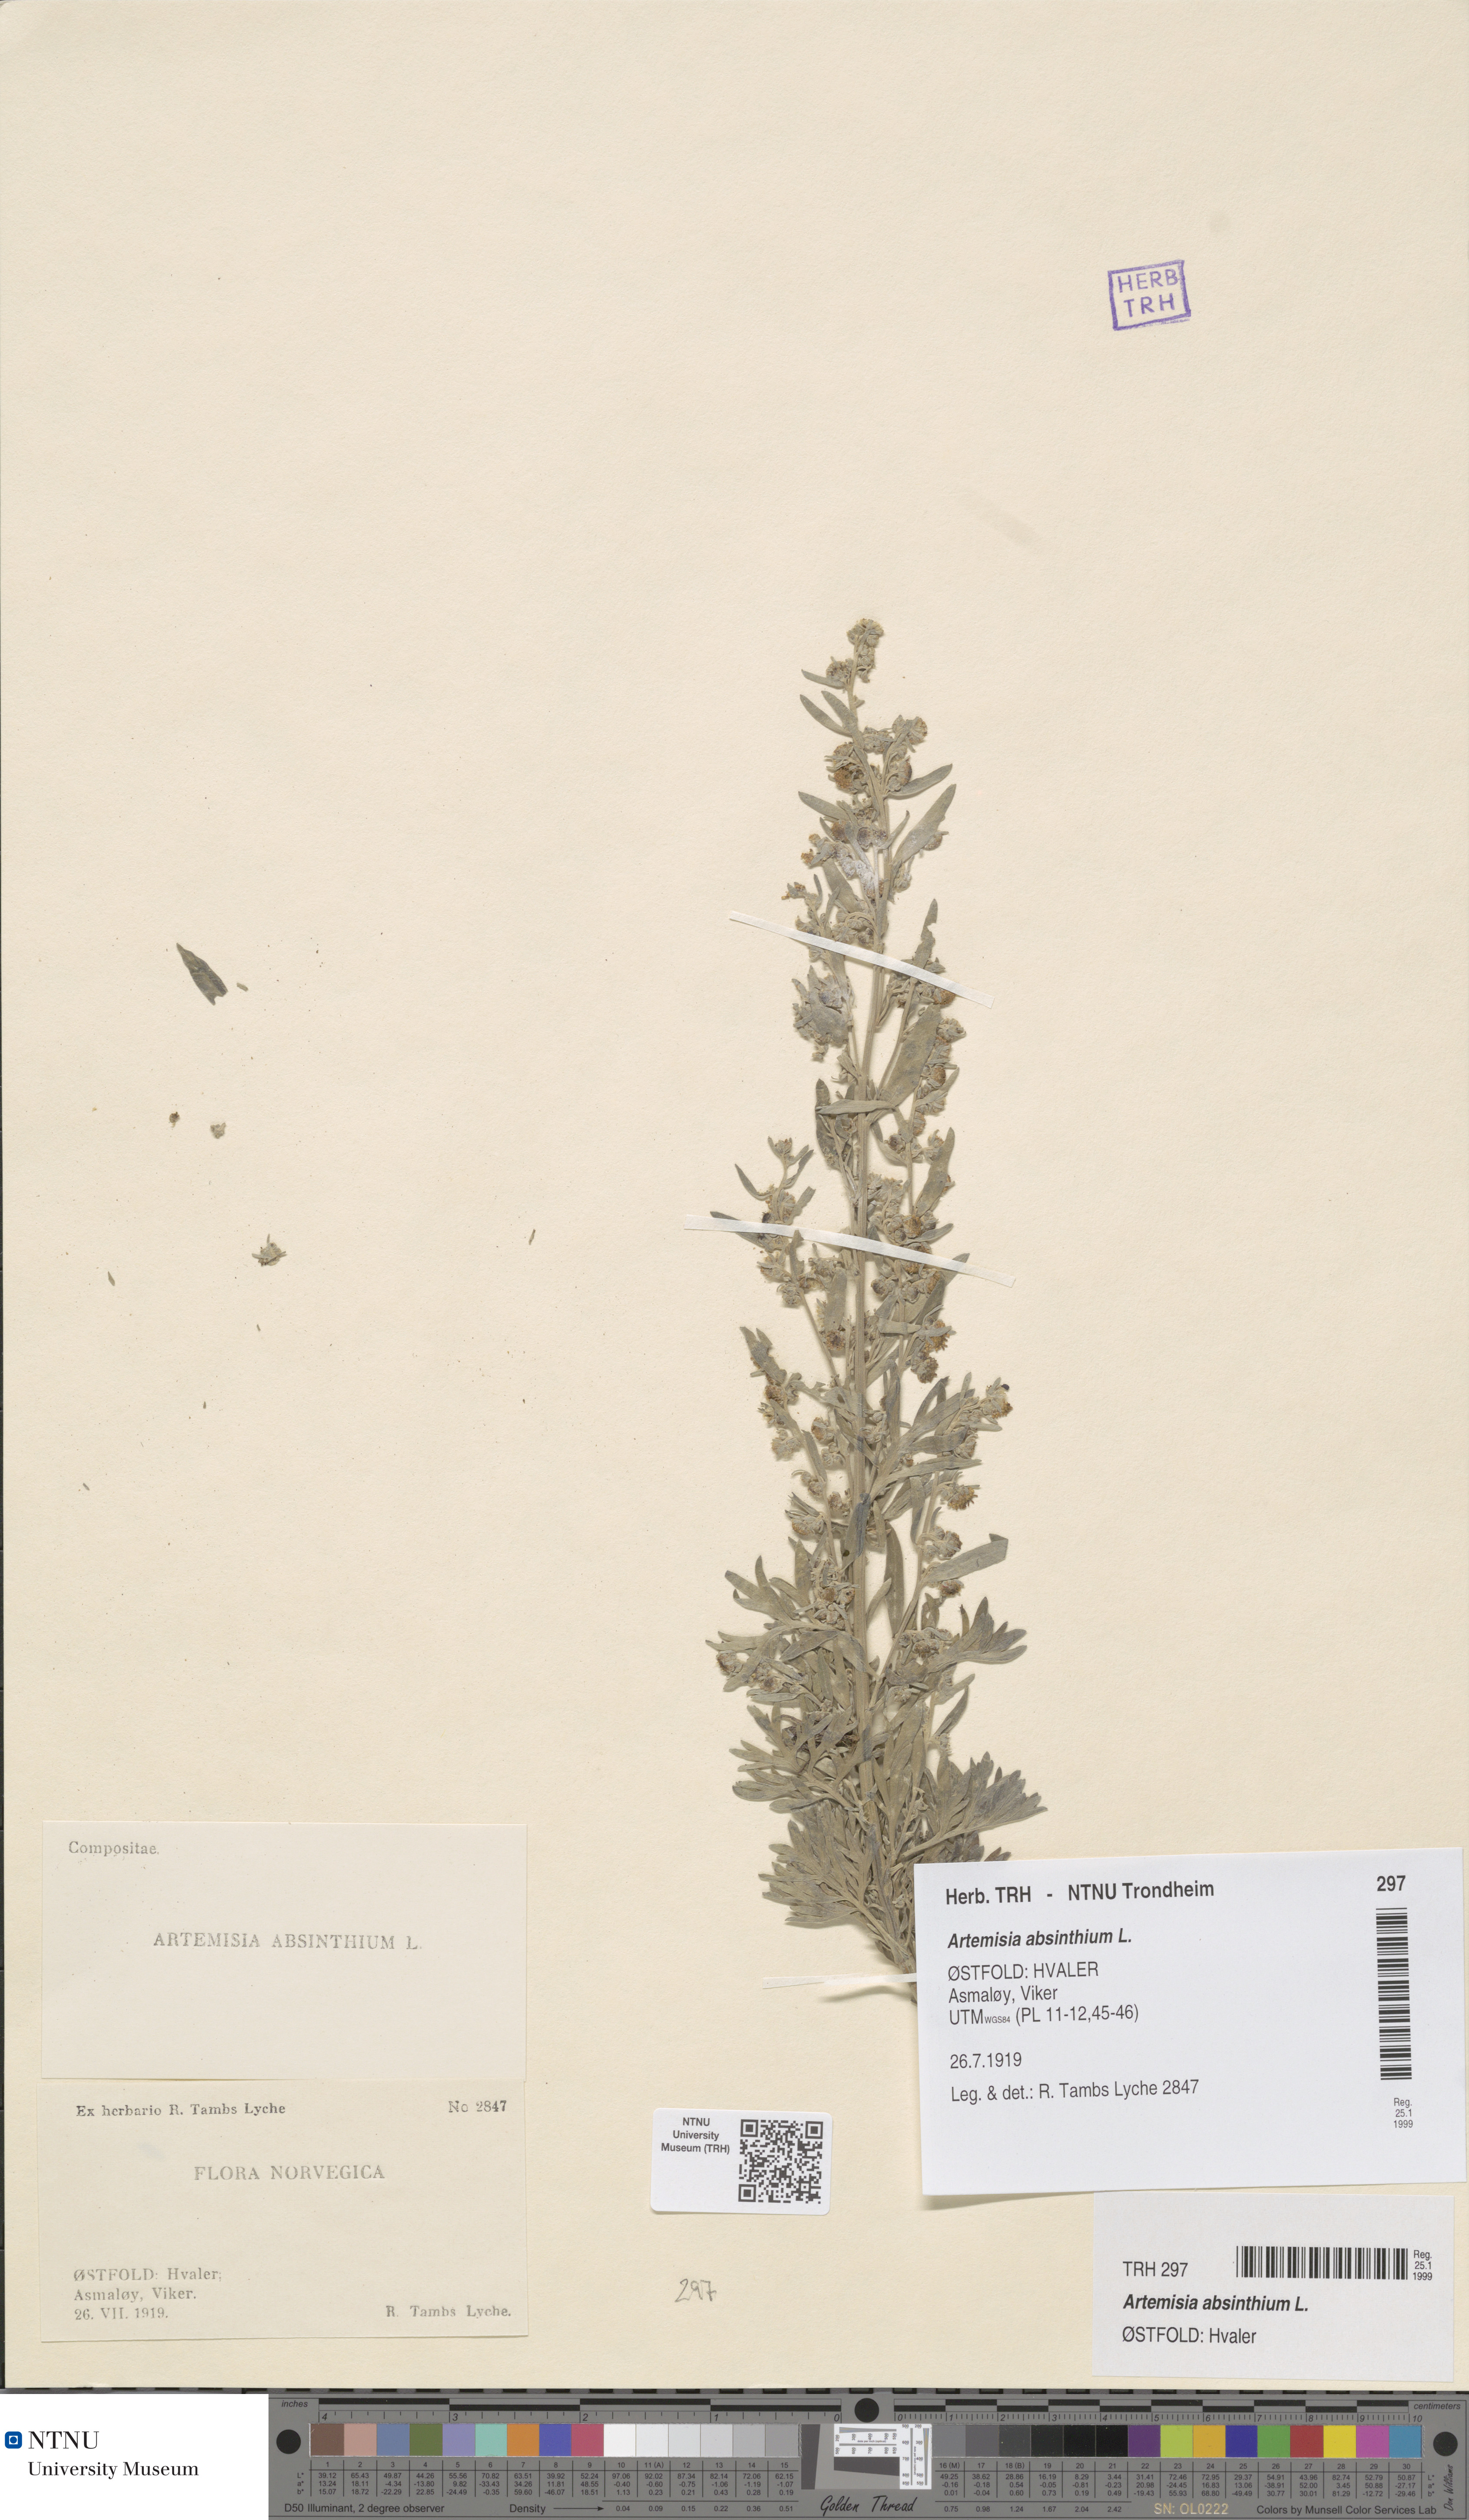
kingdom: Plantae
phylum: Tracheophyta
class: Magnoliopsida
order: Asterales
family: Asteraceae
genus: Artemisia
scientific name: Artemisia absinthium
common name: Wormwood
